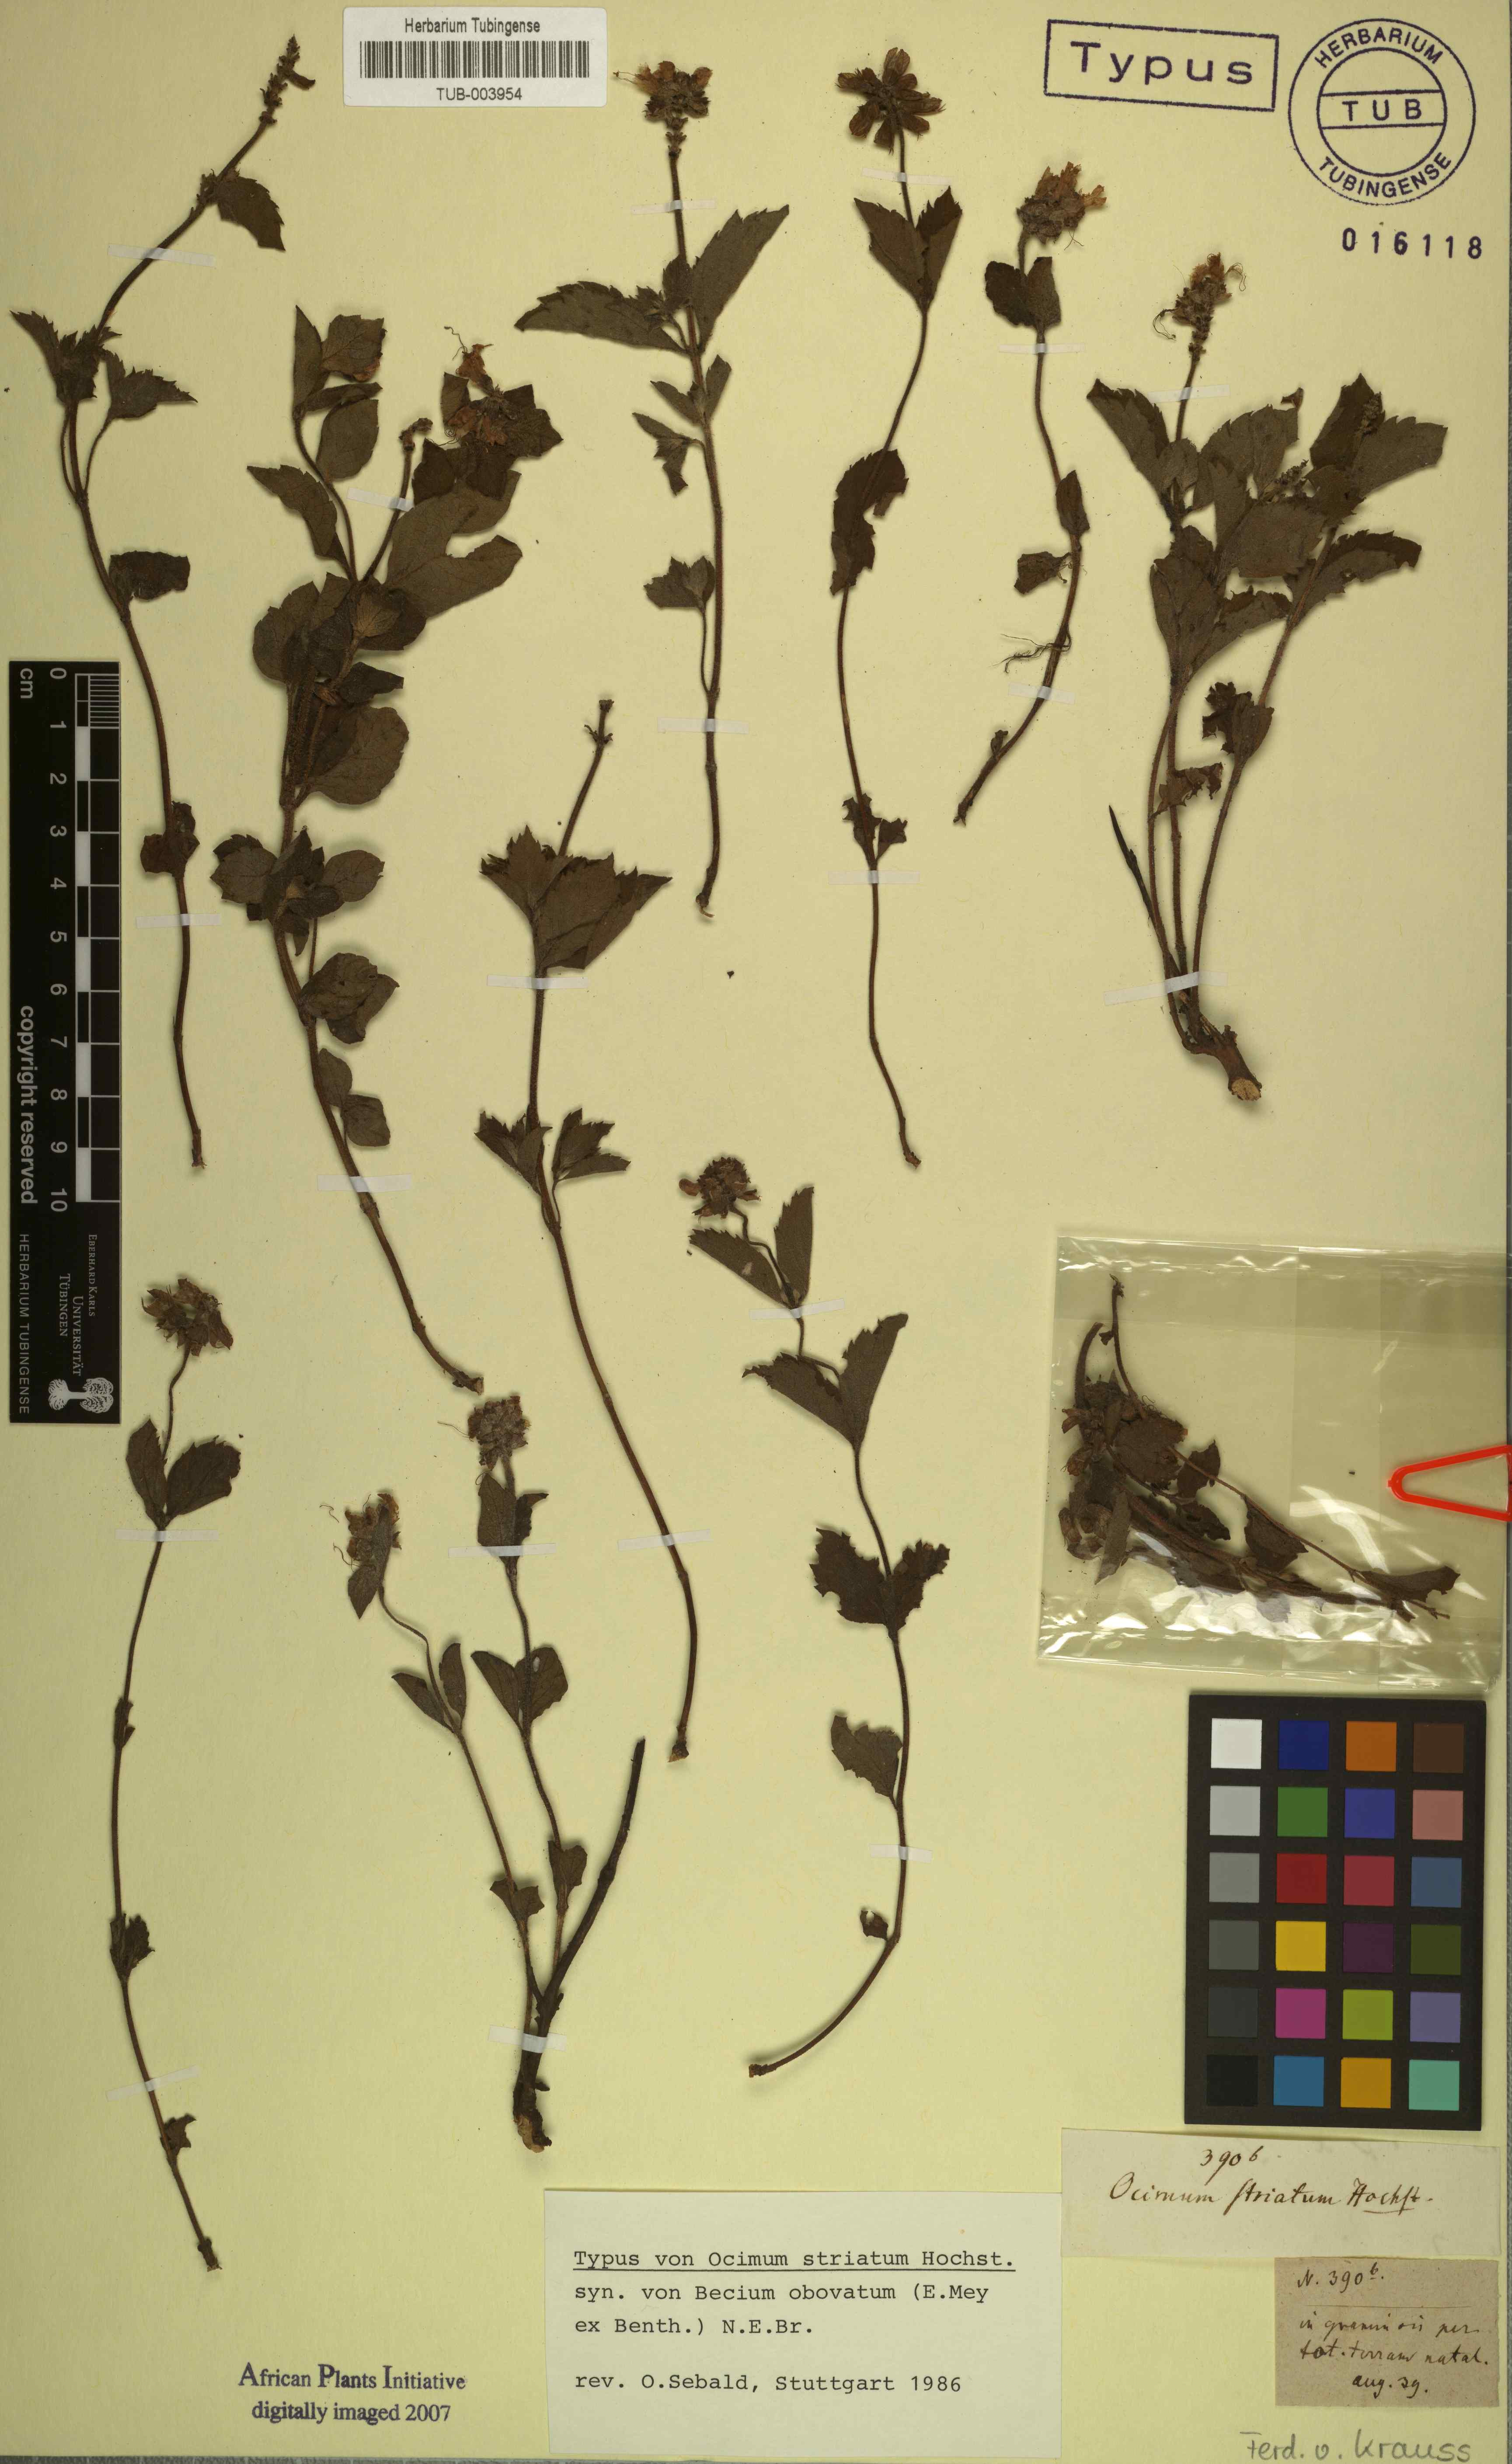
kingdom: Plantae
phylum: Tracheophyta
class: Magnoliopsida
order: Lamiales
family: Lamiaceae
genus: Ocimum
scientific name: Ocimum obovatum
